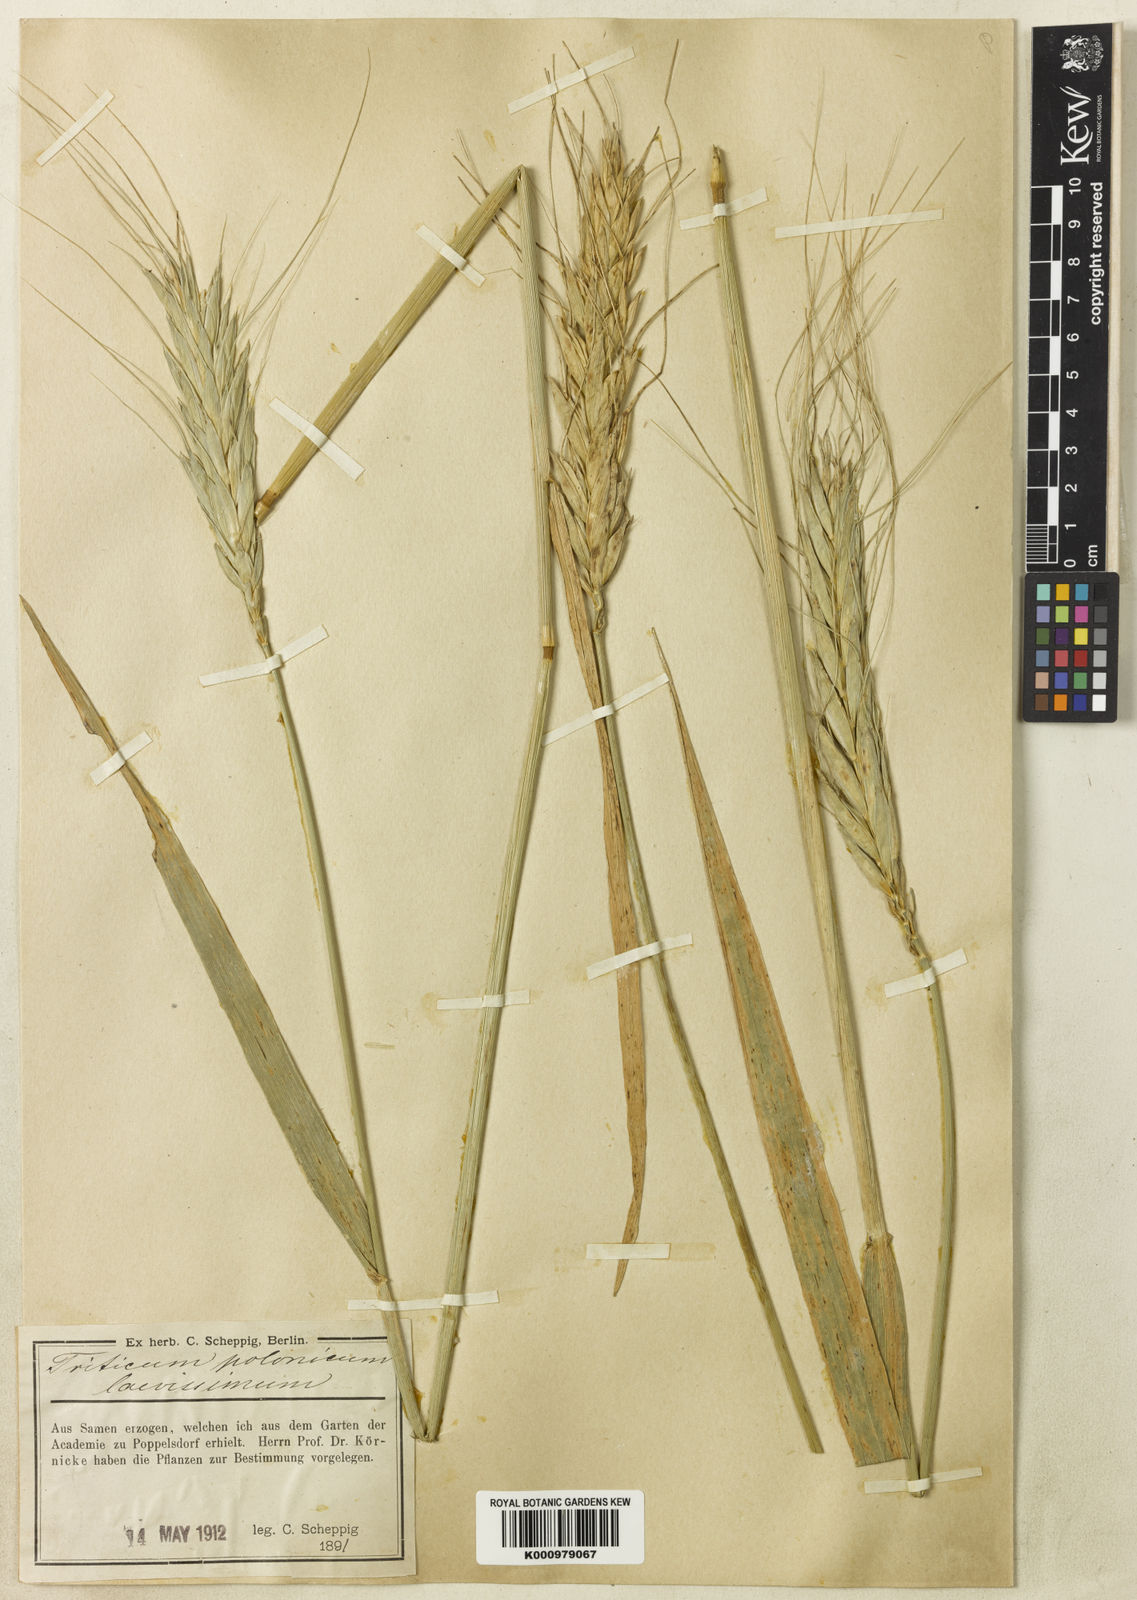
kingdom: Plantae
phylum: Tracheophyta
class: Liliopsida
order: Poales
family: Poaceae
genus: Triticum
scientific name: Triticum turgidum
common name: Rivet wheat
